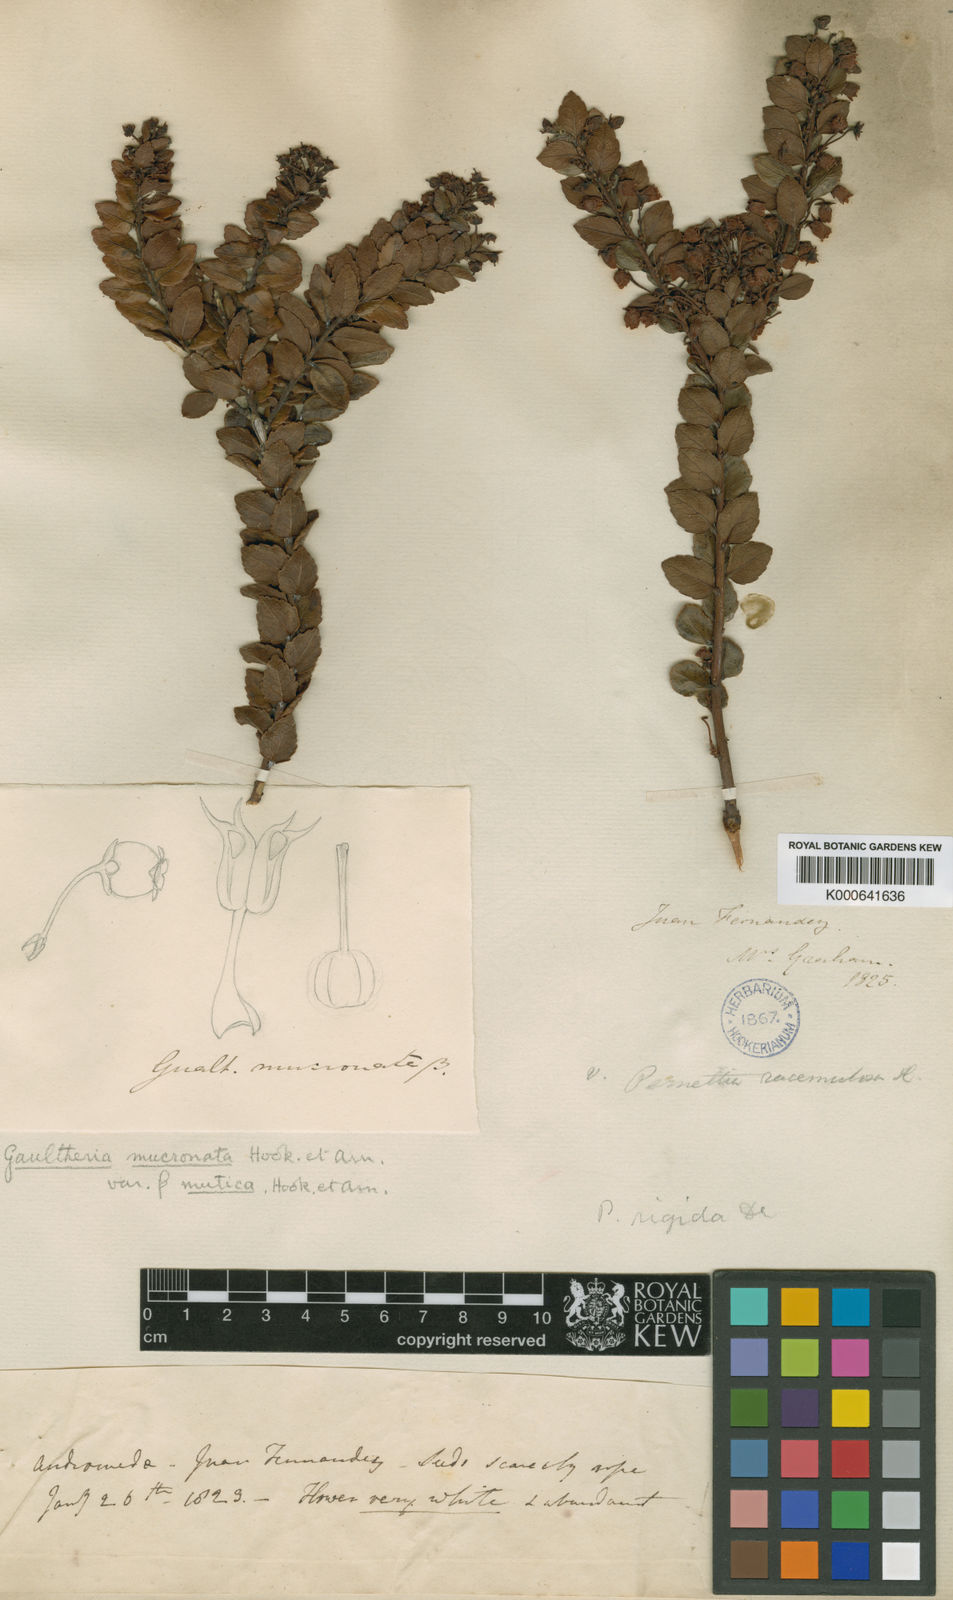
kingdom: Plantae
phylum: Tracheophyta
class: Magnoliopsida
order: Ericales
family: Ericaceae
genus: Gaultheria
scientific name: Gaultheria racemulosa
